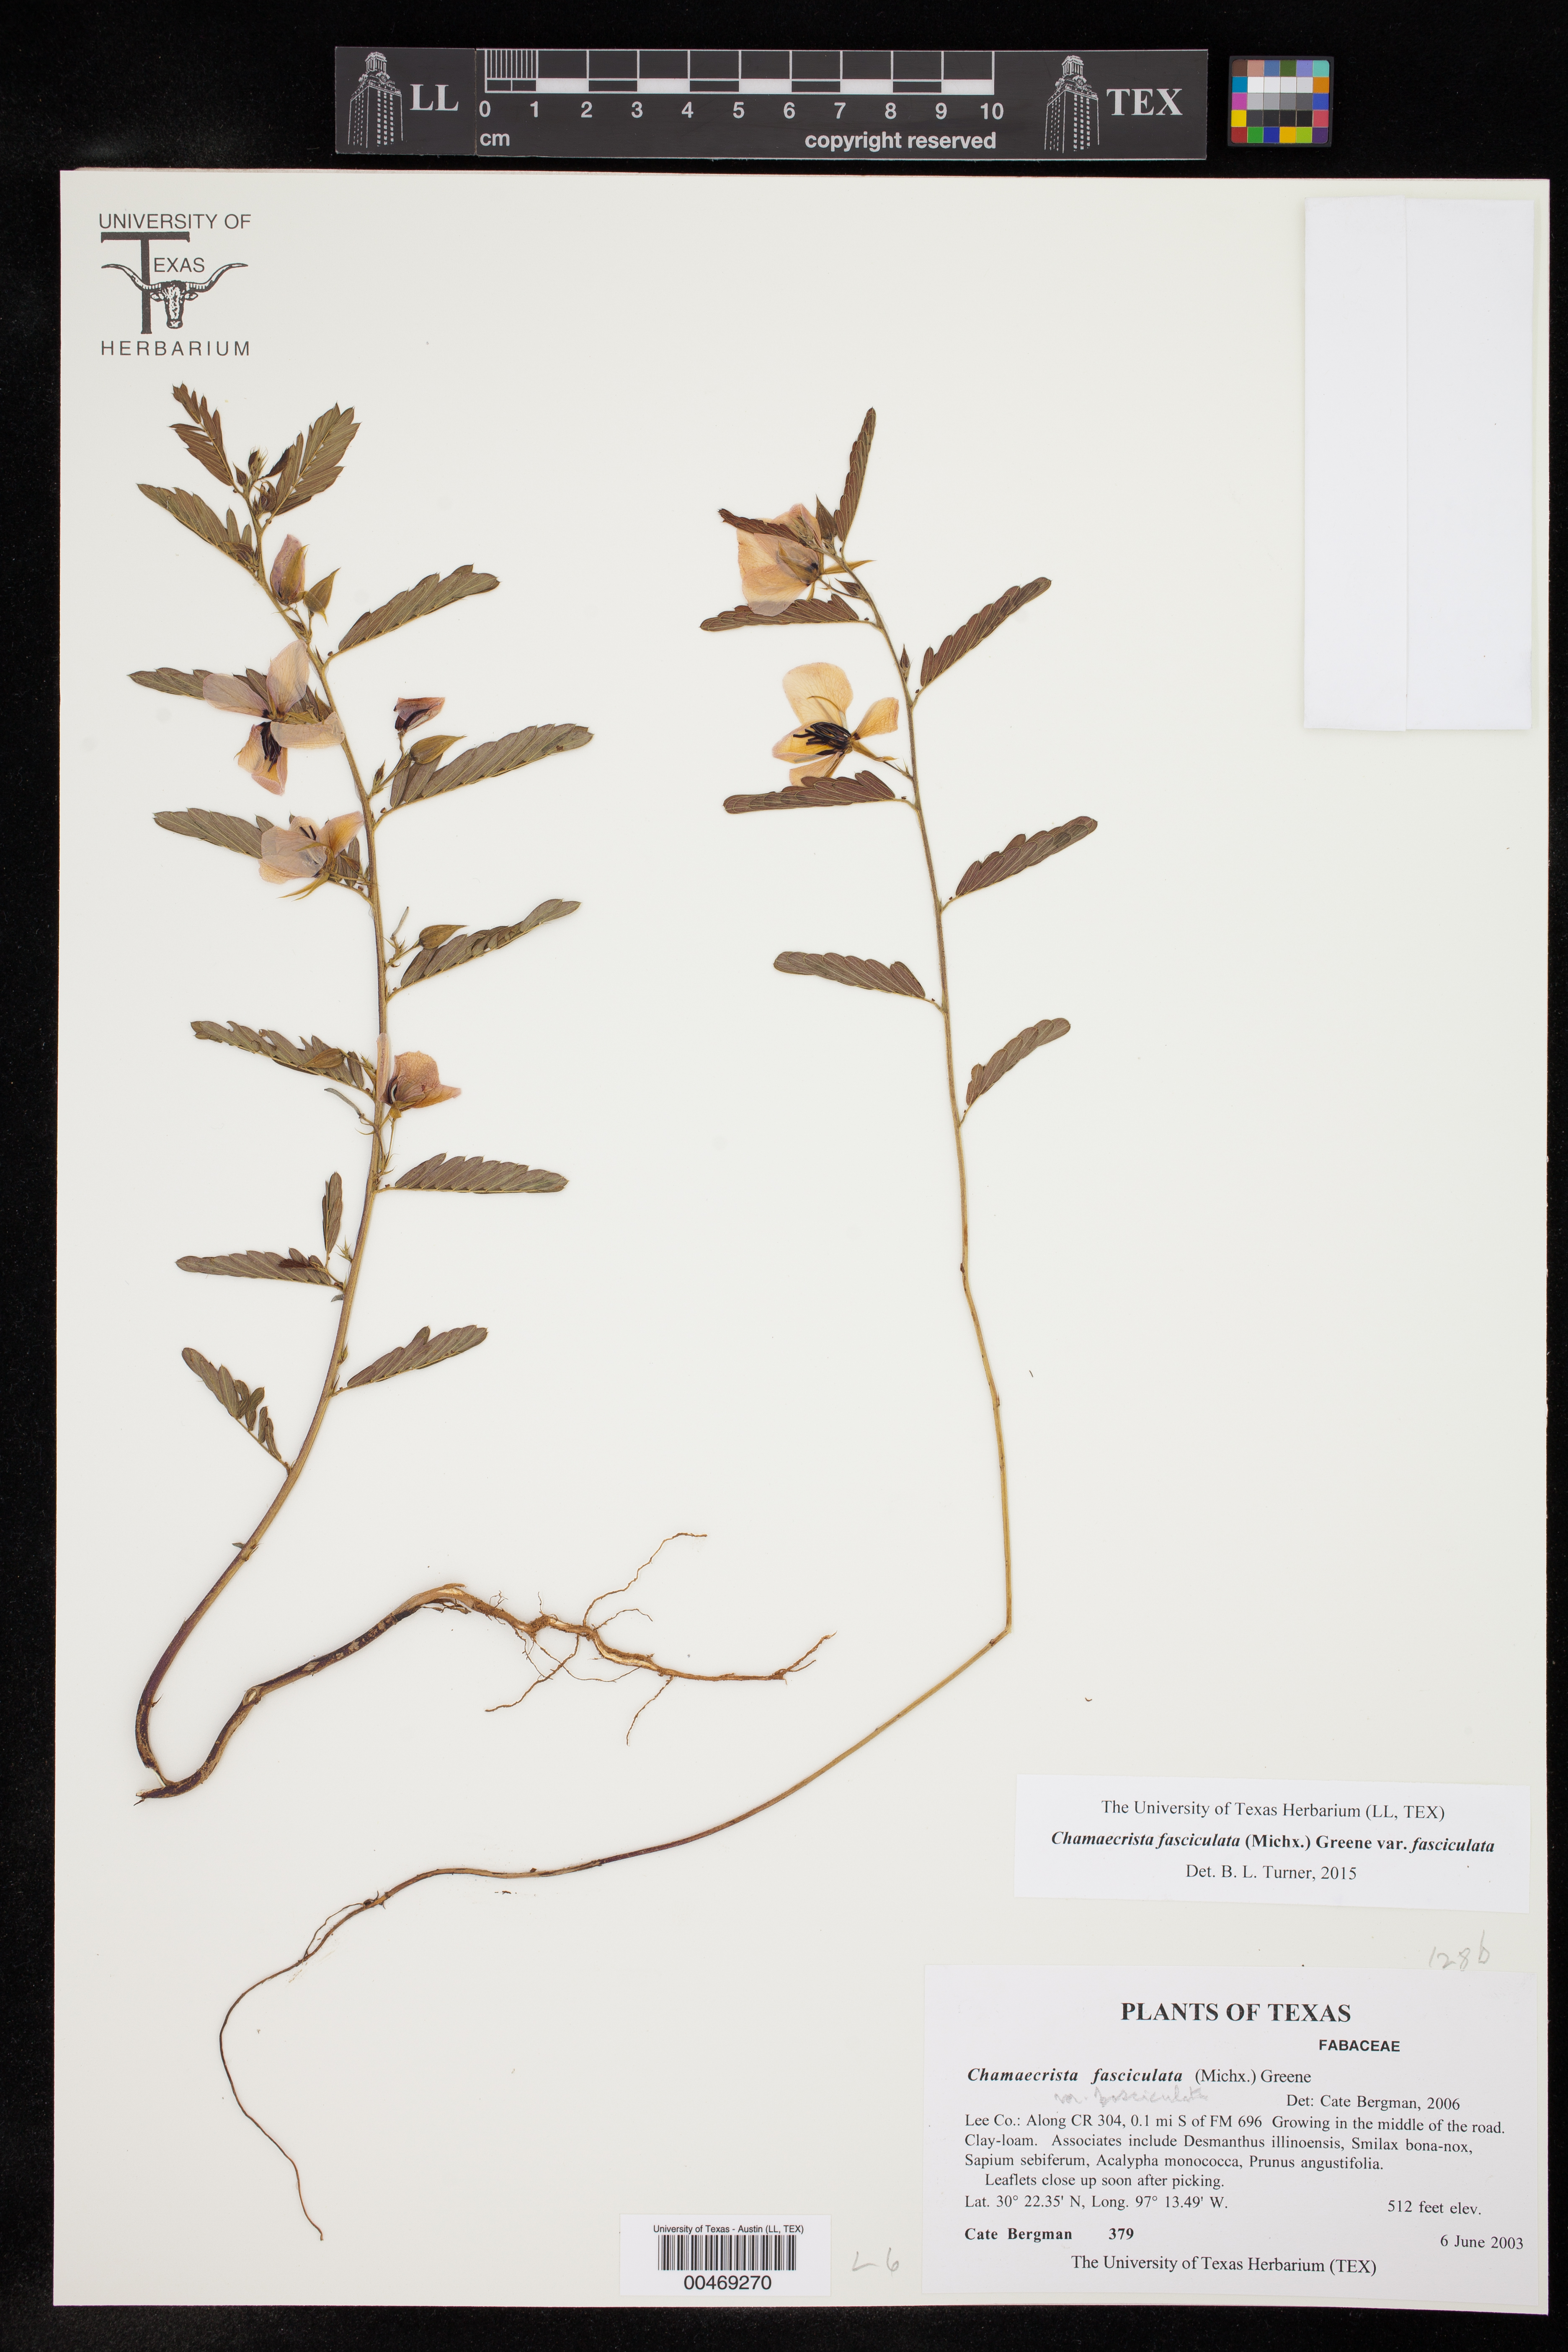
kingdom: Plantae
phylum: Tracheophyta
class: Magnoliopsida
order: Fabales
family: Fabaceae
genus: Chamaecrista
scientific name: Chamaecrista fasciculata
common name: Golden cassia
